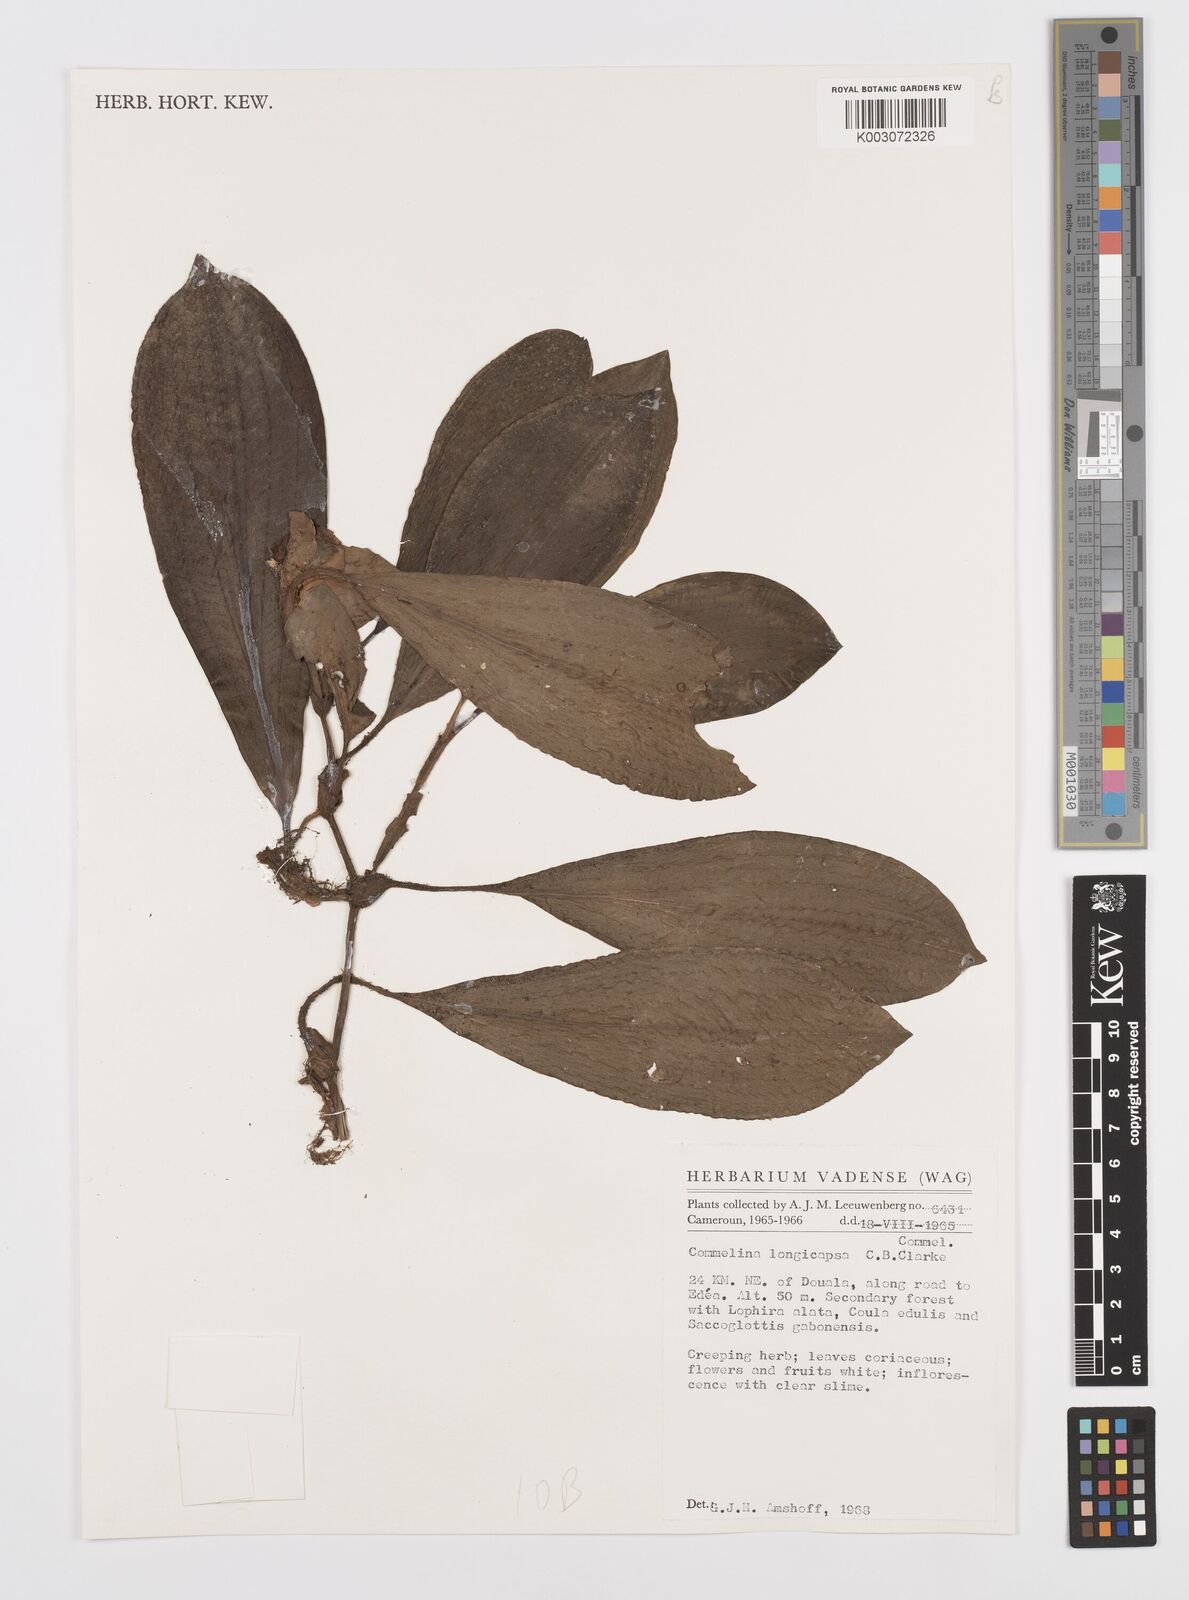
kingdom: Plantae
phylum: Tracheophyta
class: Liliopsida
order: Commelinales
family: Commelinaceae
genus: Commelina
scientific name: Commelina longicapsa
